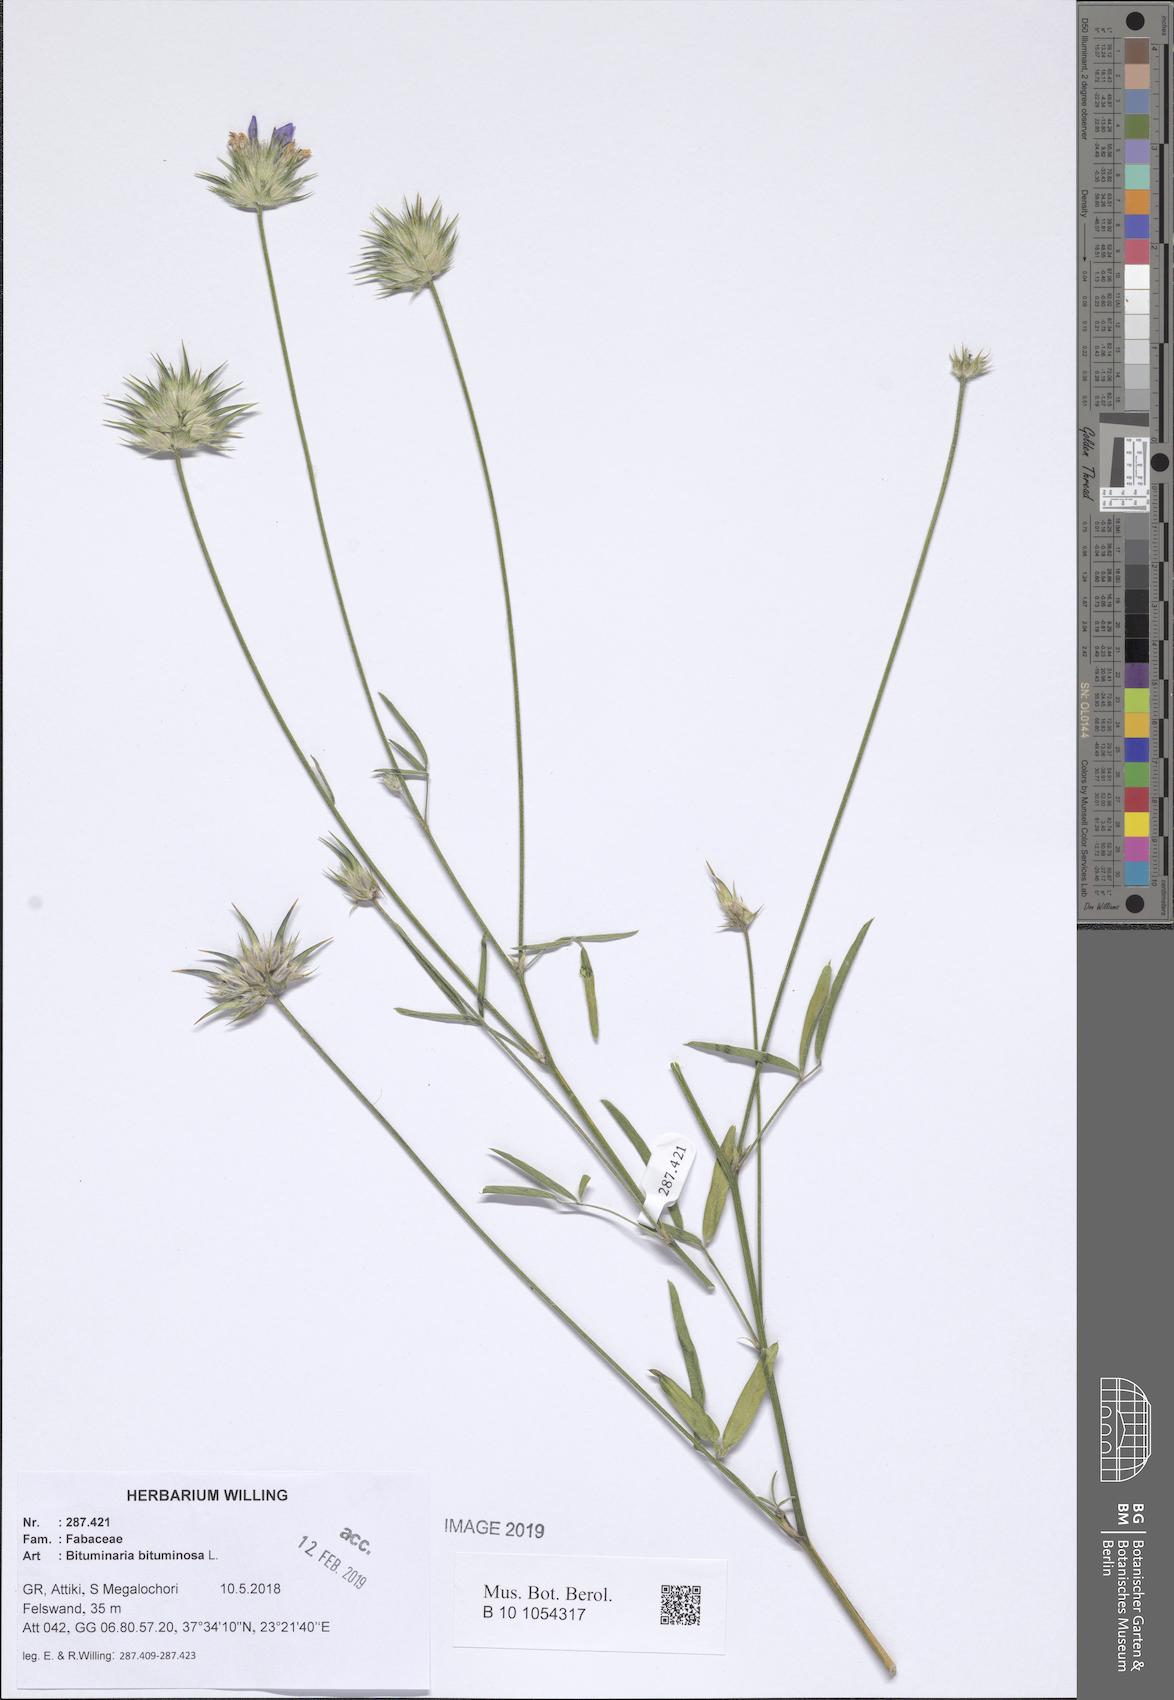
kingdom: Plantae
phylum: Tracheophyta
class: Magnoliopsida
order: Fabales
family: Fabaceae
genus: Bituminaria
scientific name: Bituminaria bituminosa
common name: Arabian pea
